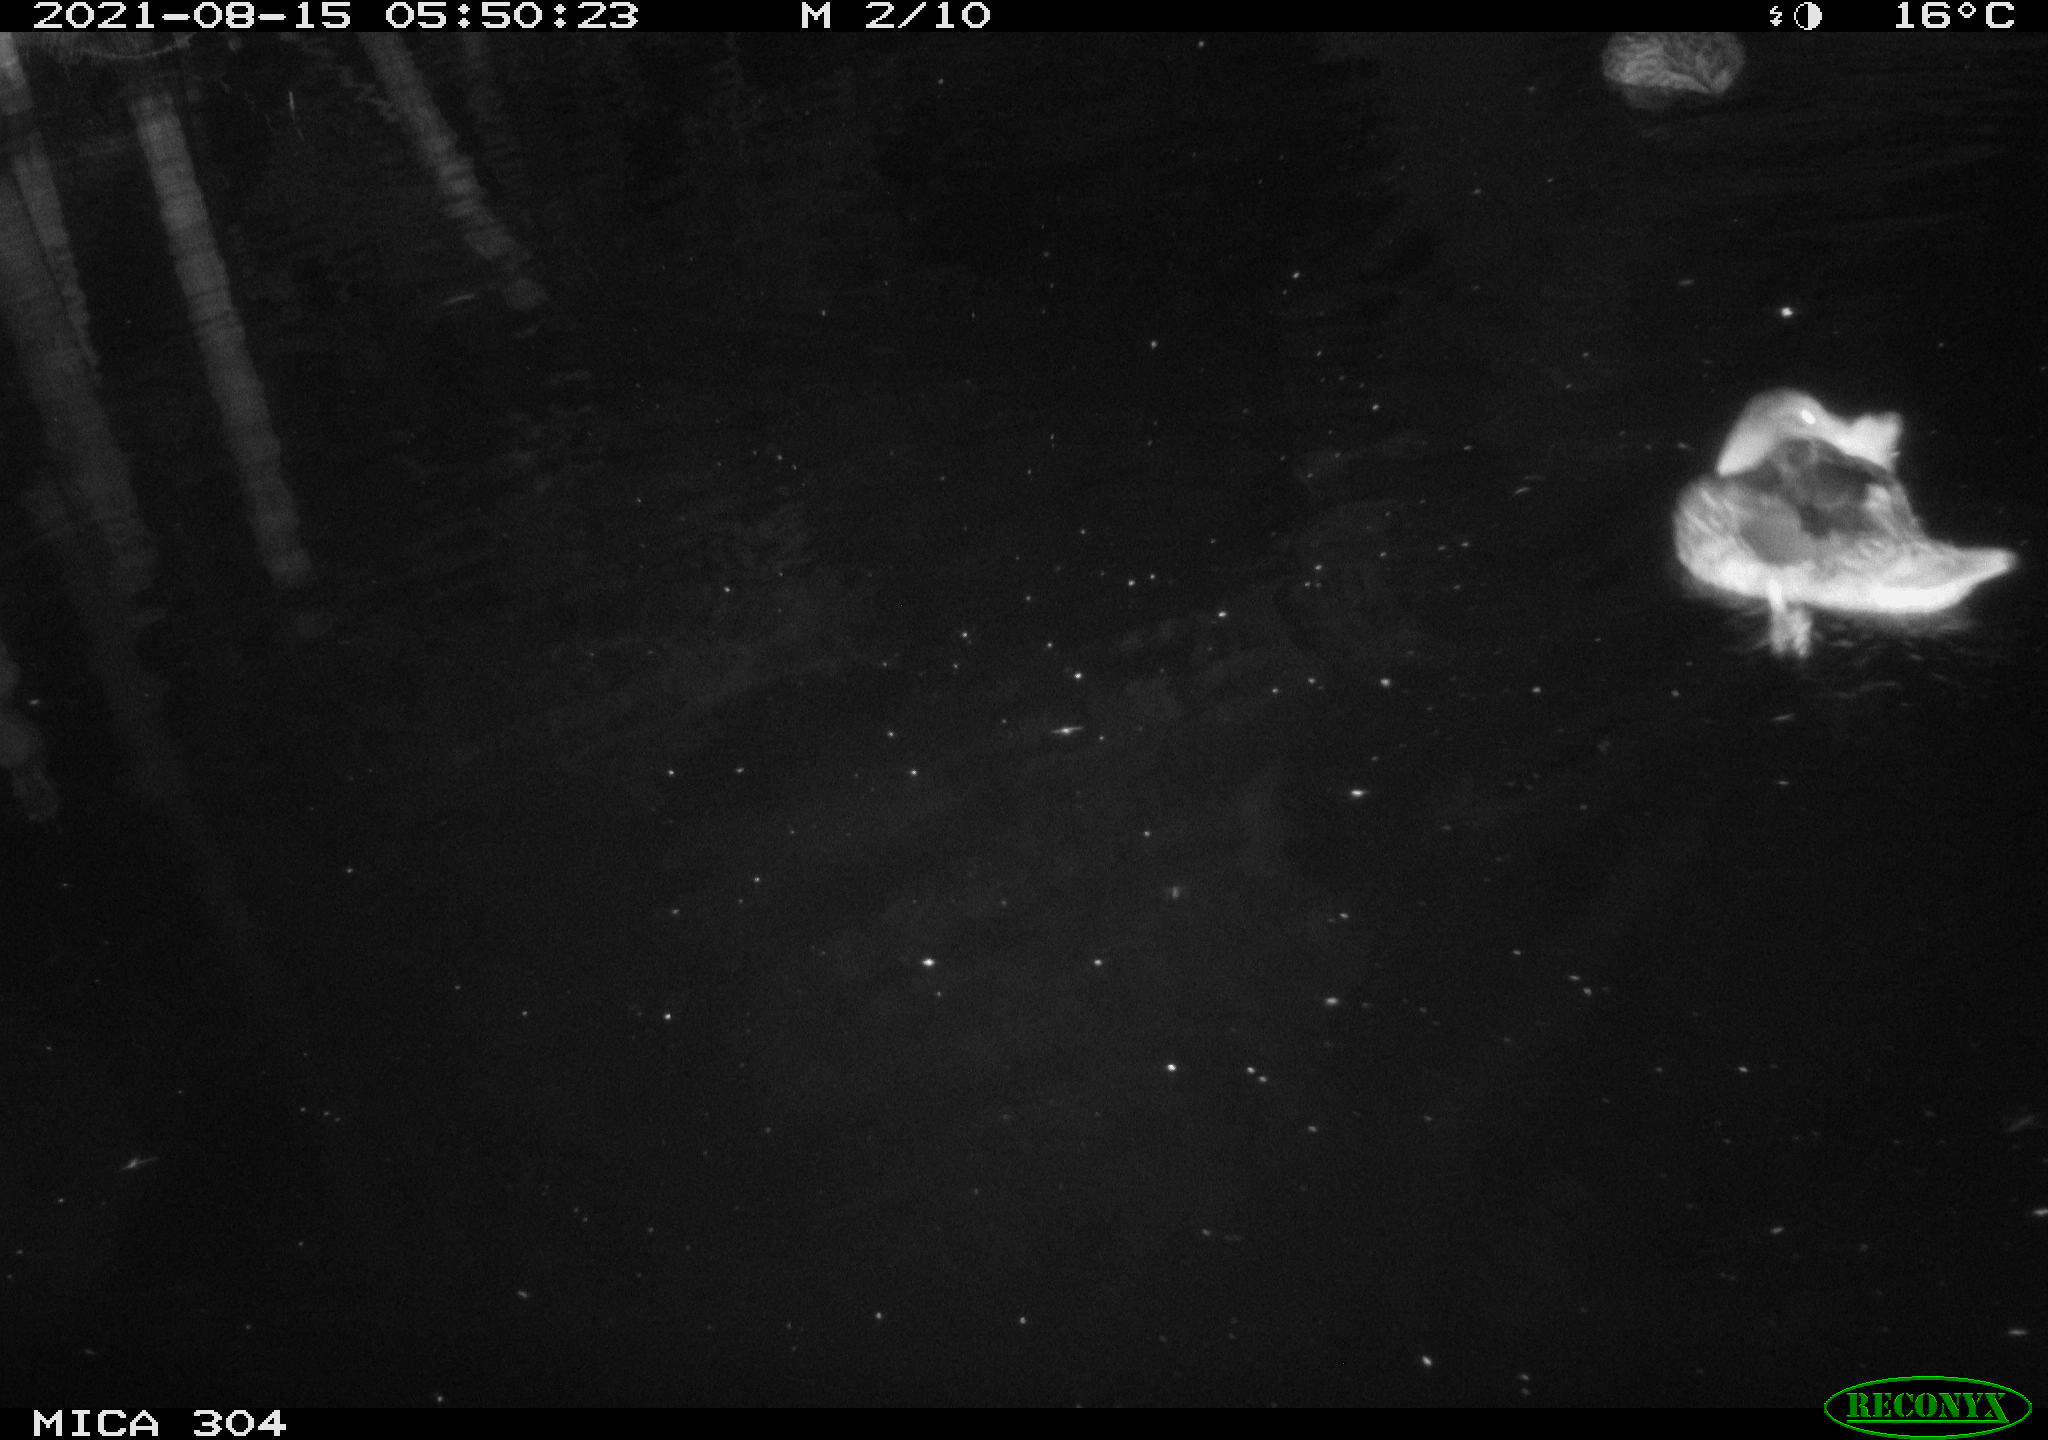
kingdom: Animalia
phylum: Chordata
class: Aves
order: Anseriformes
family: Anatidae
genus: Anas
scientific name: Anas platyrhynchos
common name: Mallard
